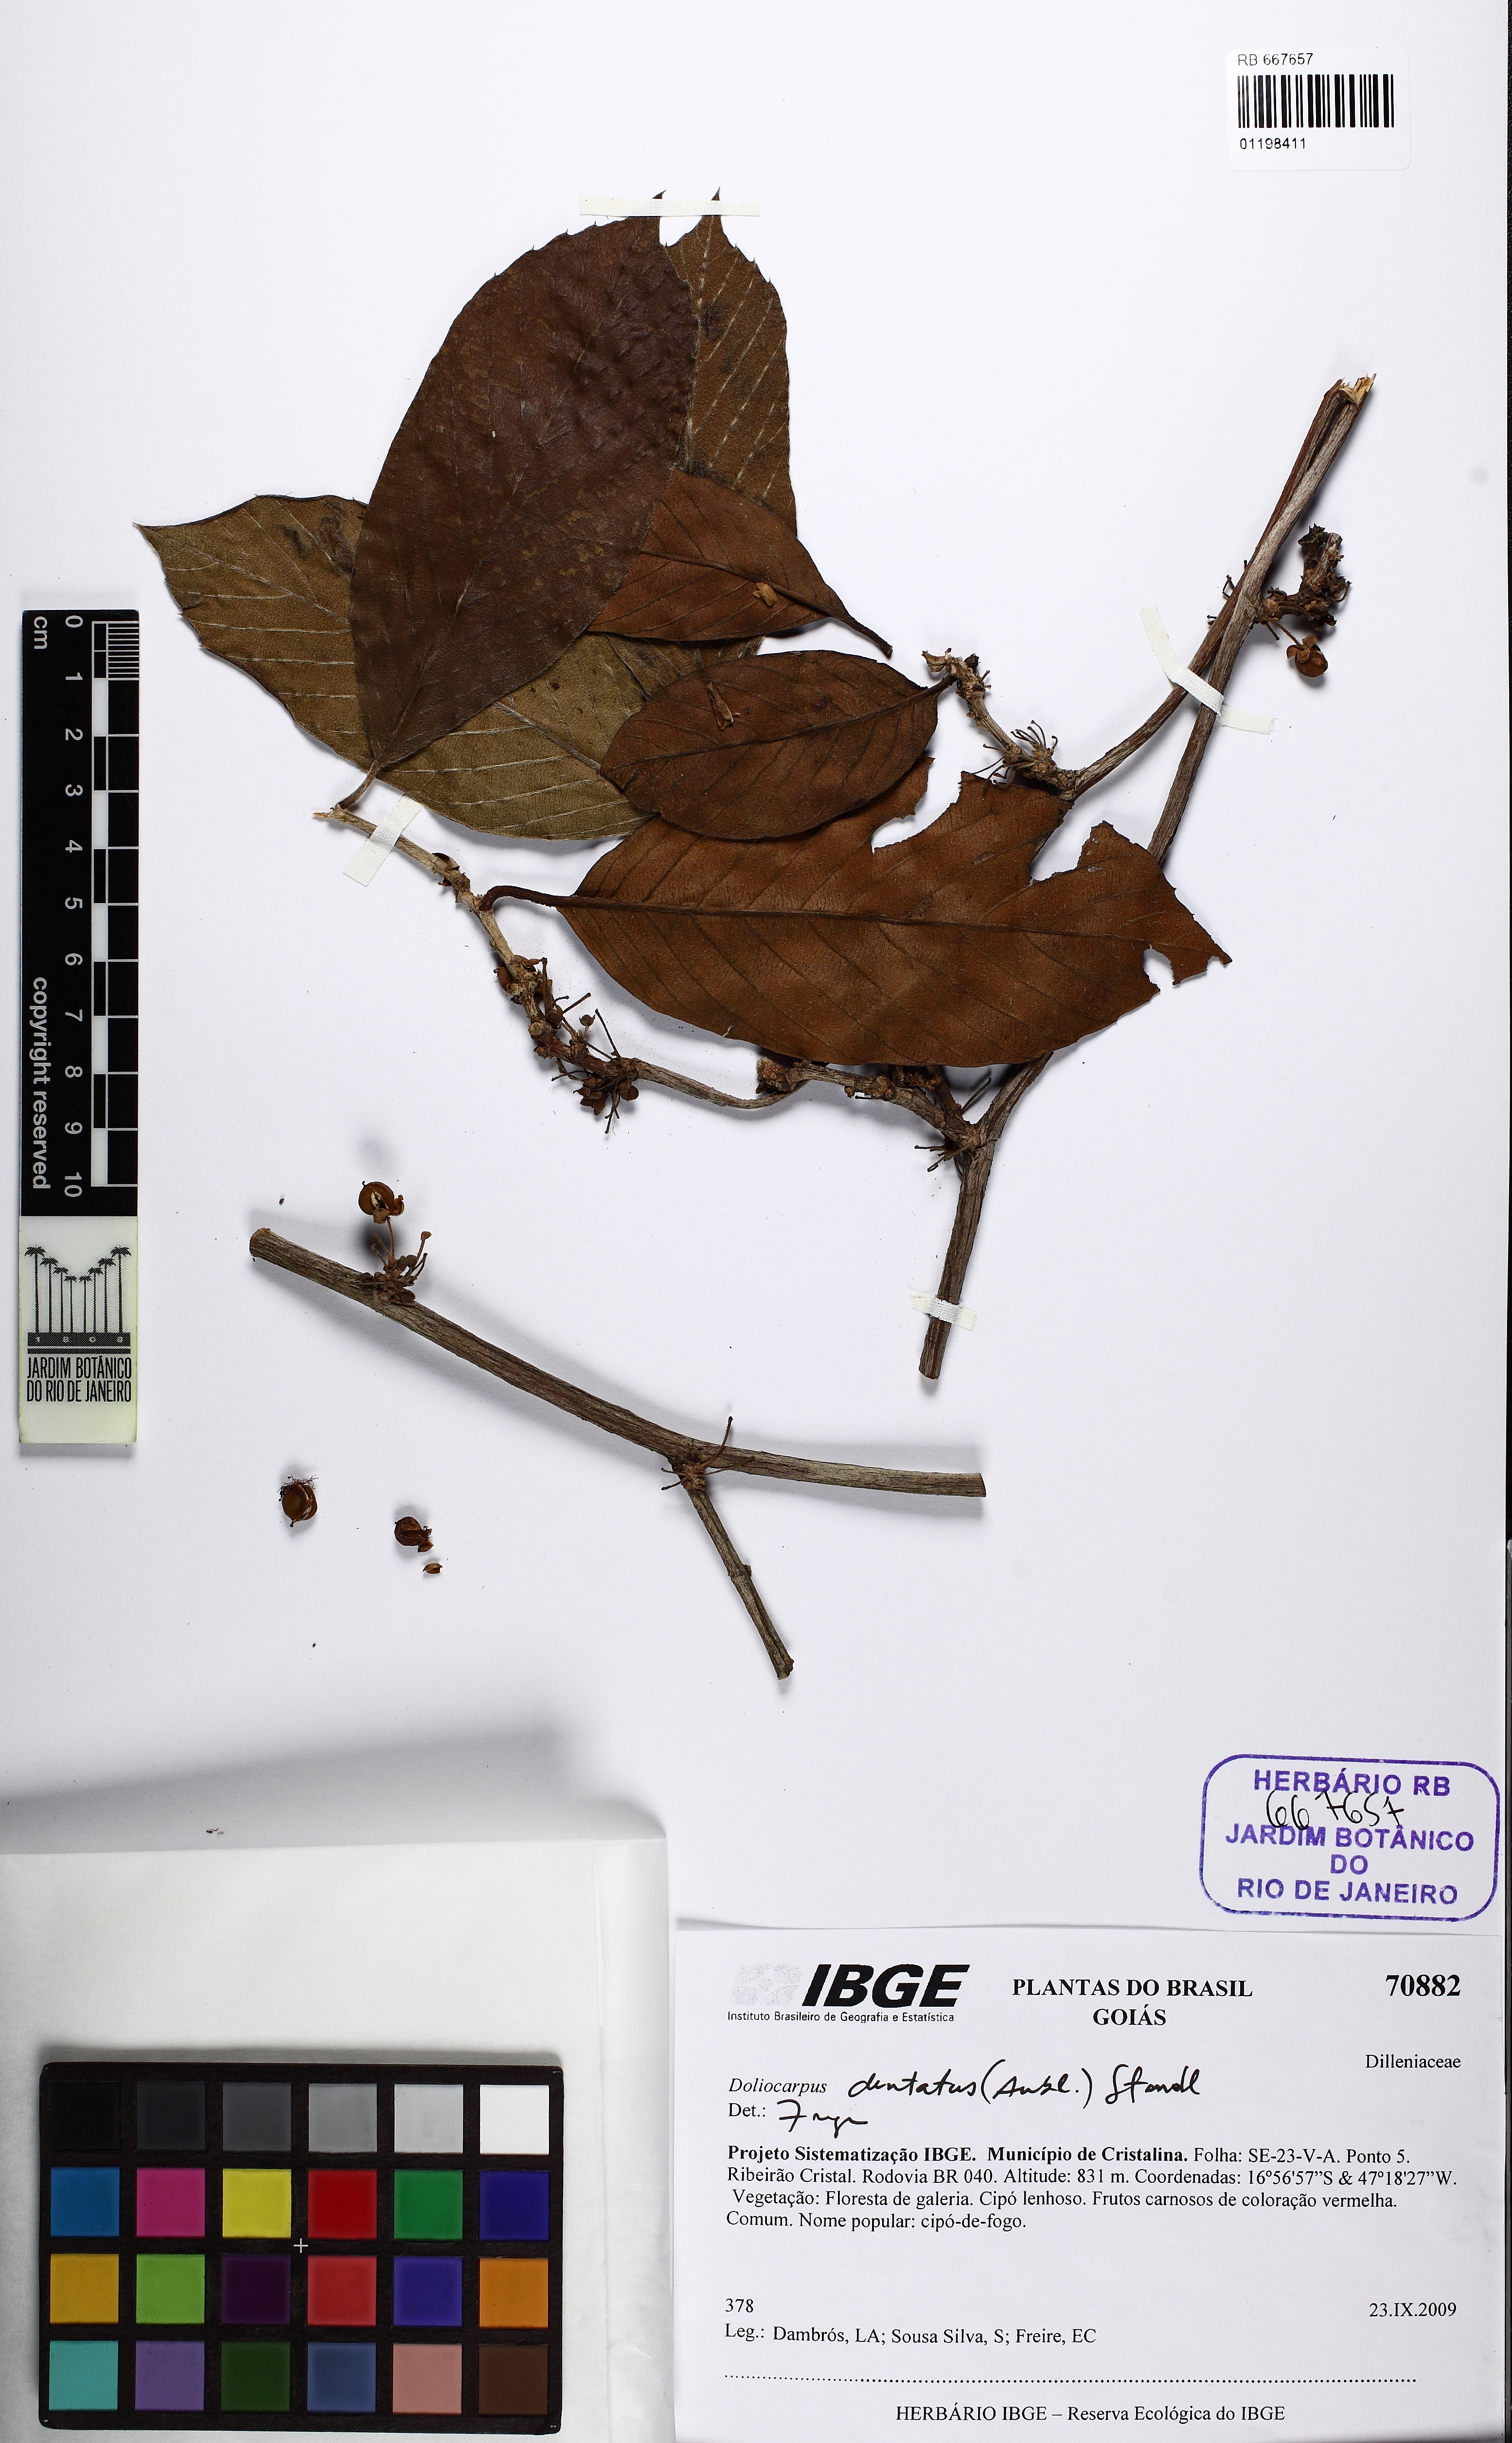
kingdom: Plantae
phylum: Tracheophyta
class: Magnoliopsida
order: Dilleniales
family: Dilleniaceae
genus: Doliocarpus
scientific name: Doliocarpus dentatus
